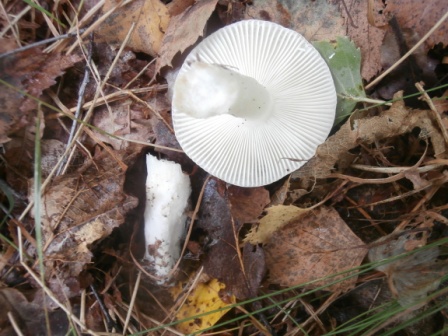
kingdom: Fungi
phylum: Basidiomycota
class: Agaricomycetes
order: Russulales
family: Russulaceae
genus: Russula
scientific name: Russula betularum
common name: bleg gift-skørhat
